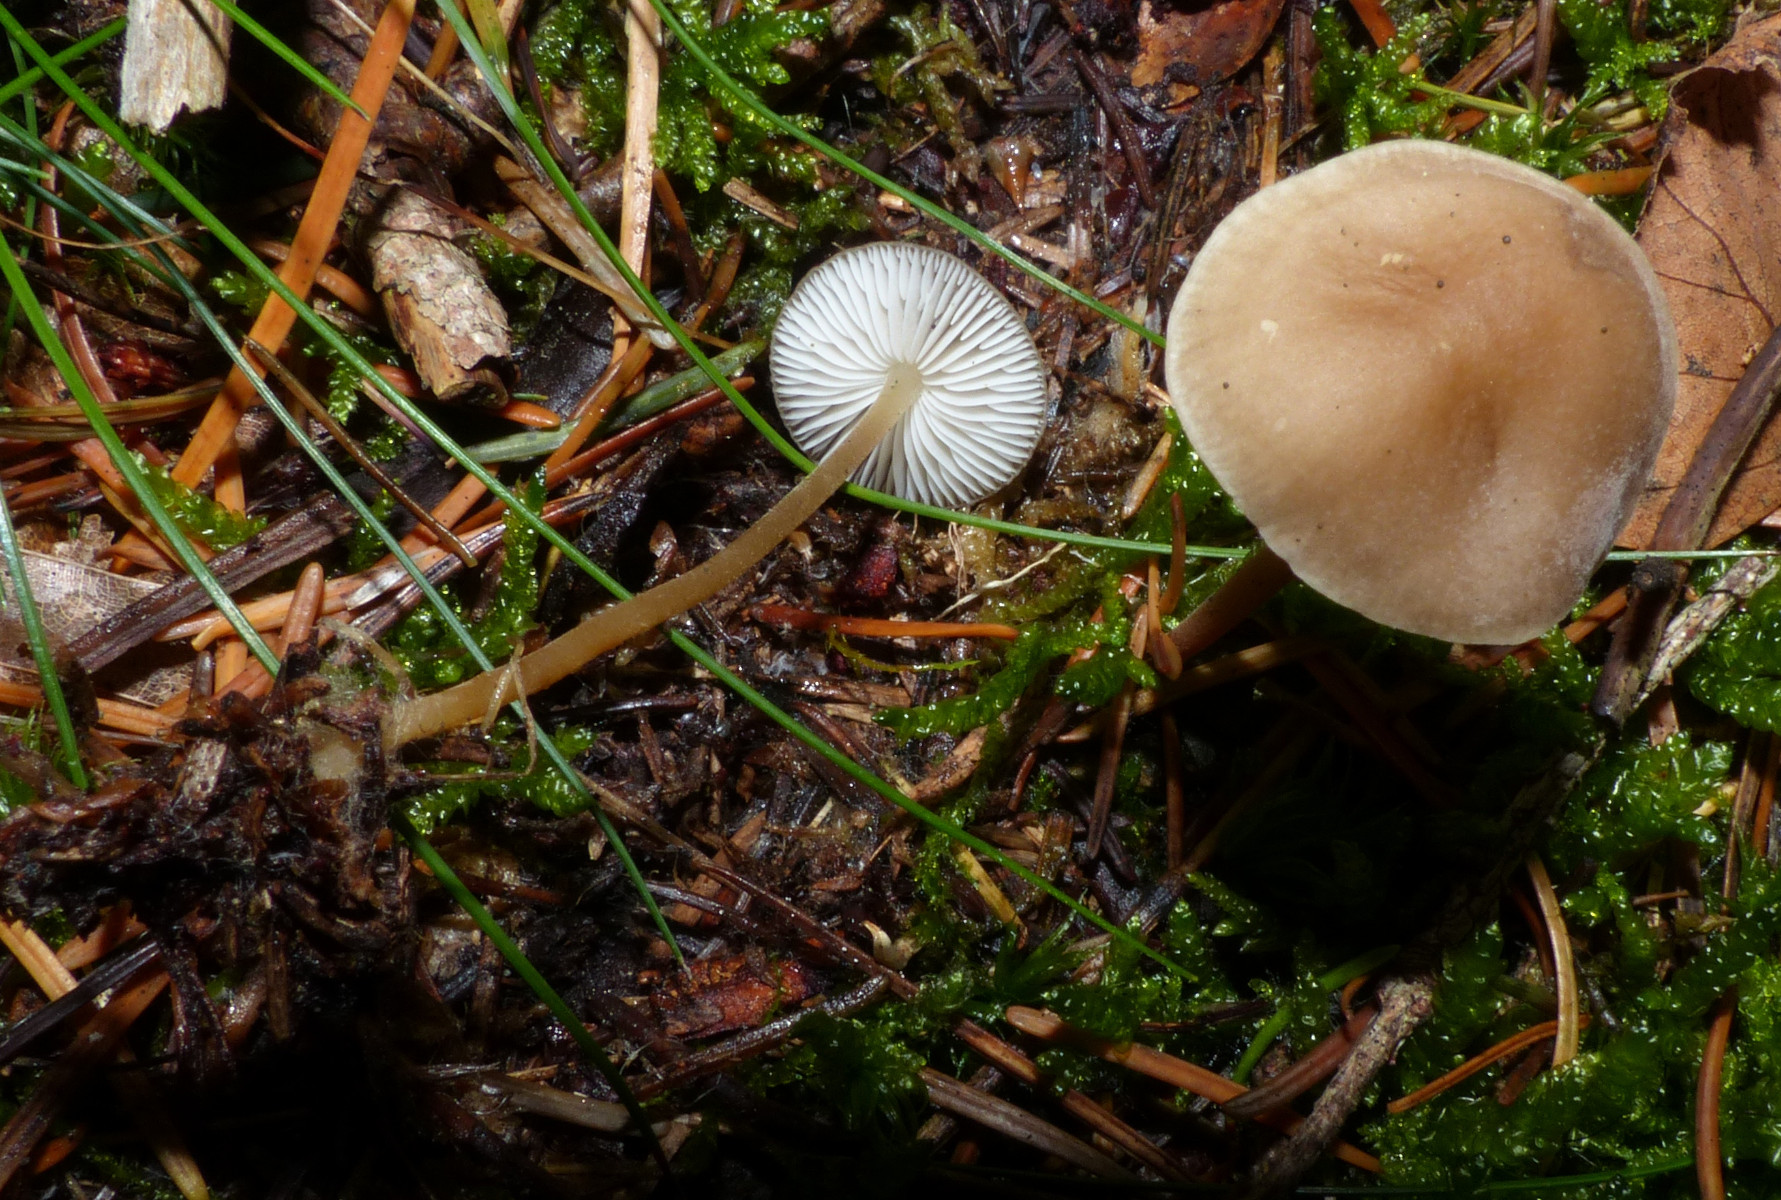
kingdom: Fungi
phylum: Basidiomycota
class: Agaricomycetes
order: Agaricales
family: Physalacriaceae
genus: Strobilurus
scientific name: Strobilurus esculentus
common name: gran-koglehat
